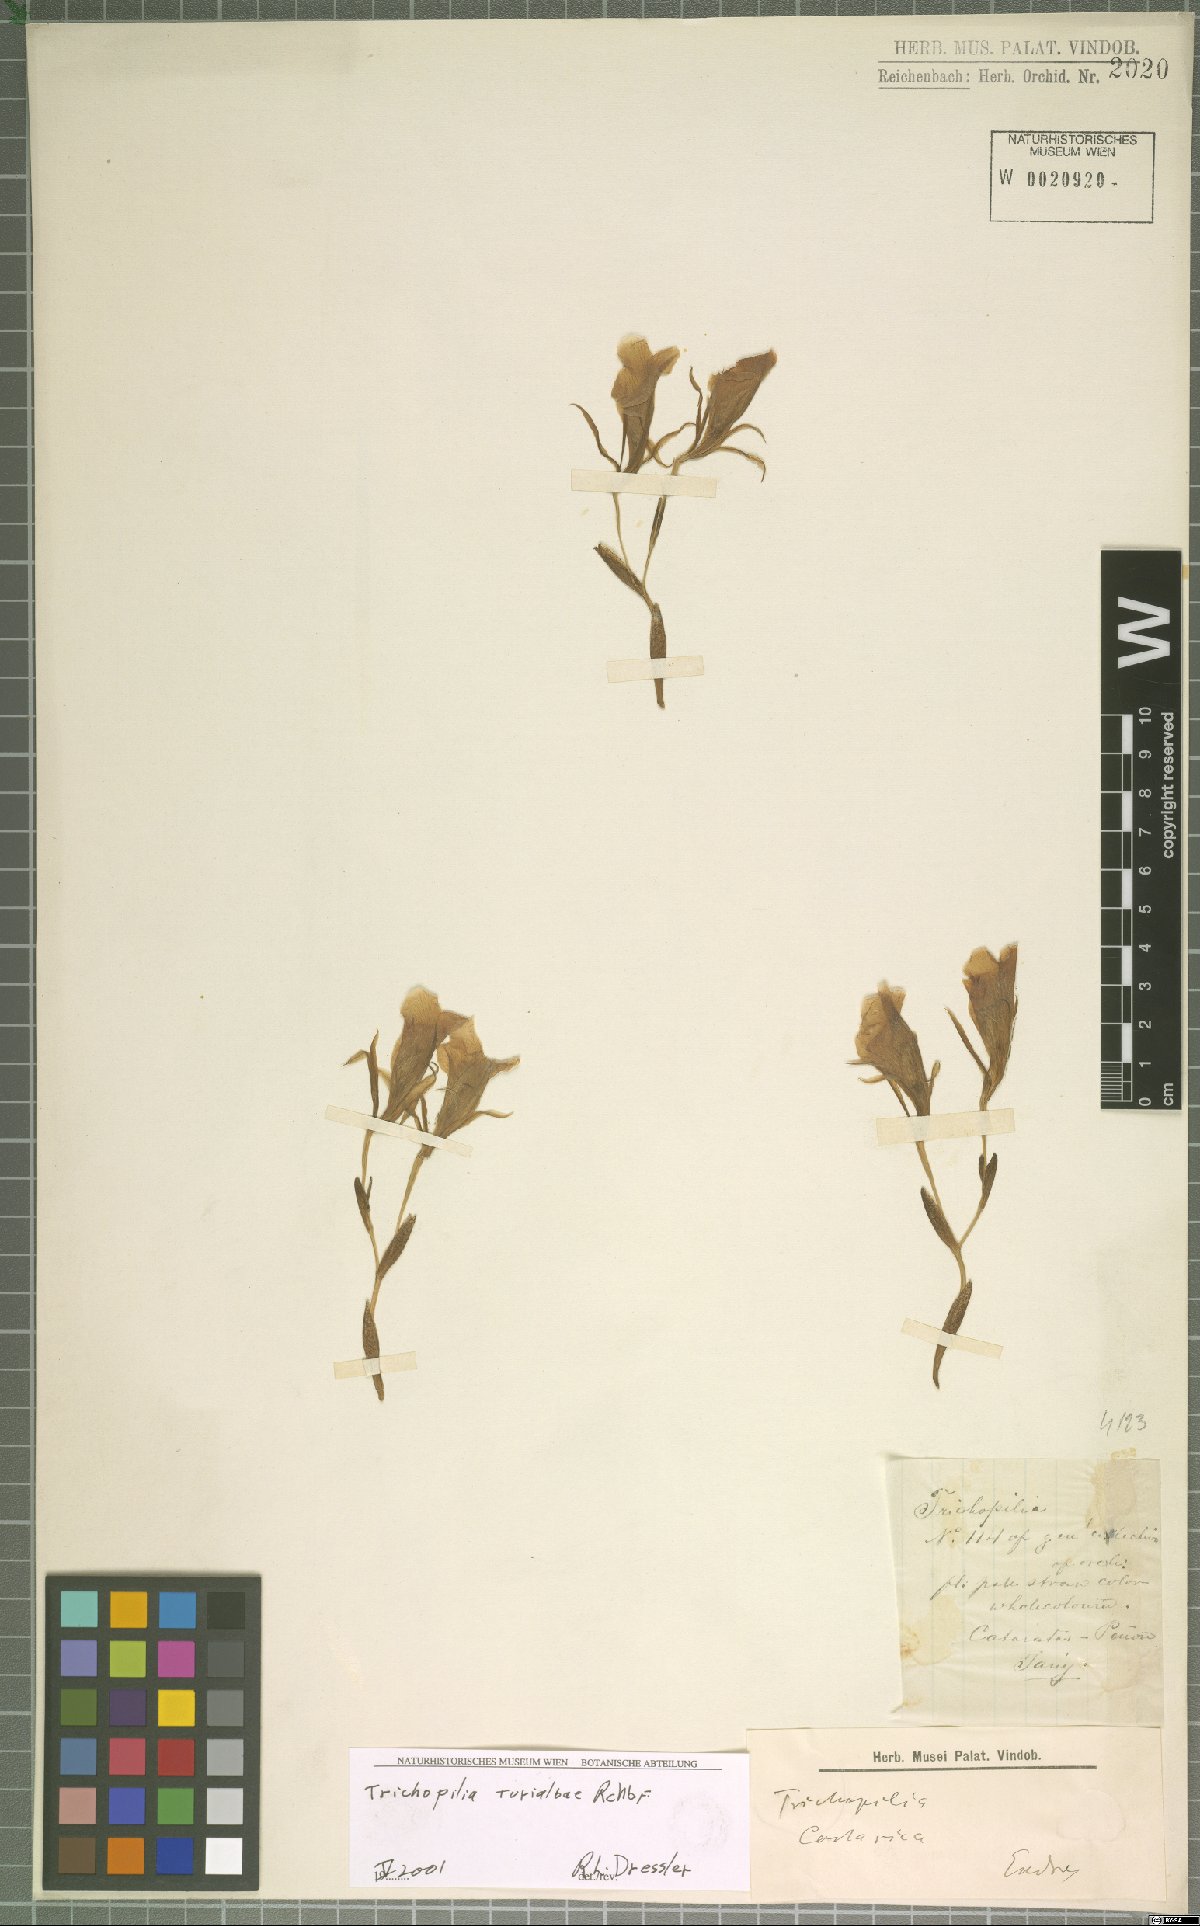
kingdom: Plantae
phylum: Tracheophyta
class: Liliopsida
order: Asparagales
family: Orchidaceae
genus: Trichopilia
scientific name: Trichopilia turialbae
